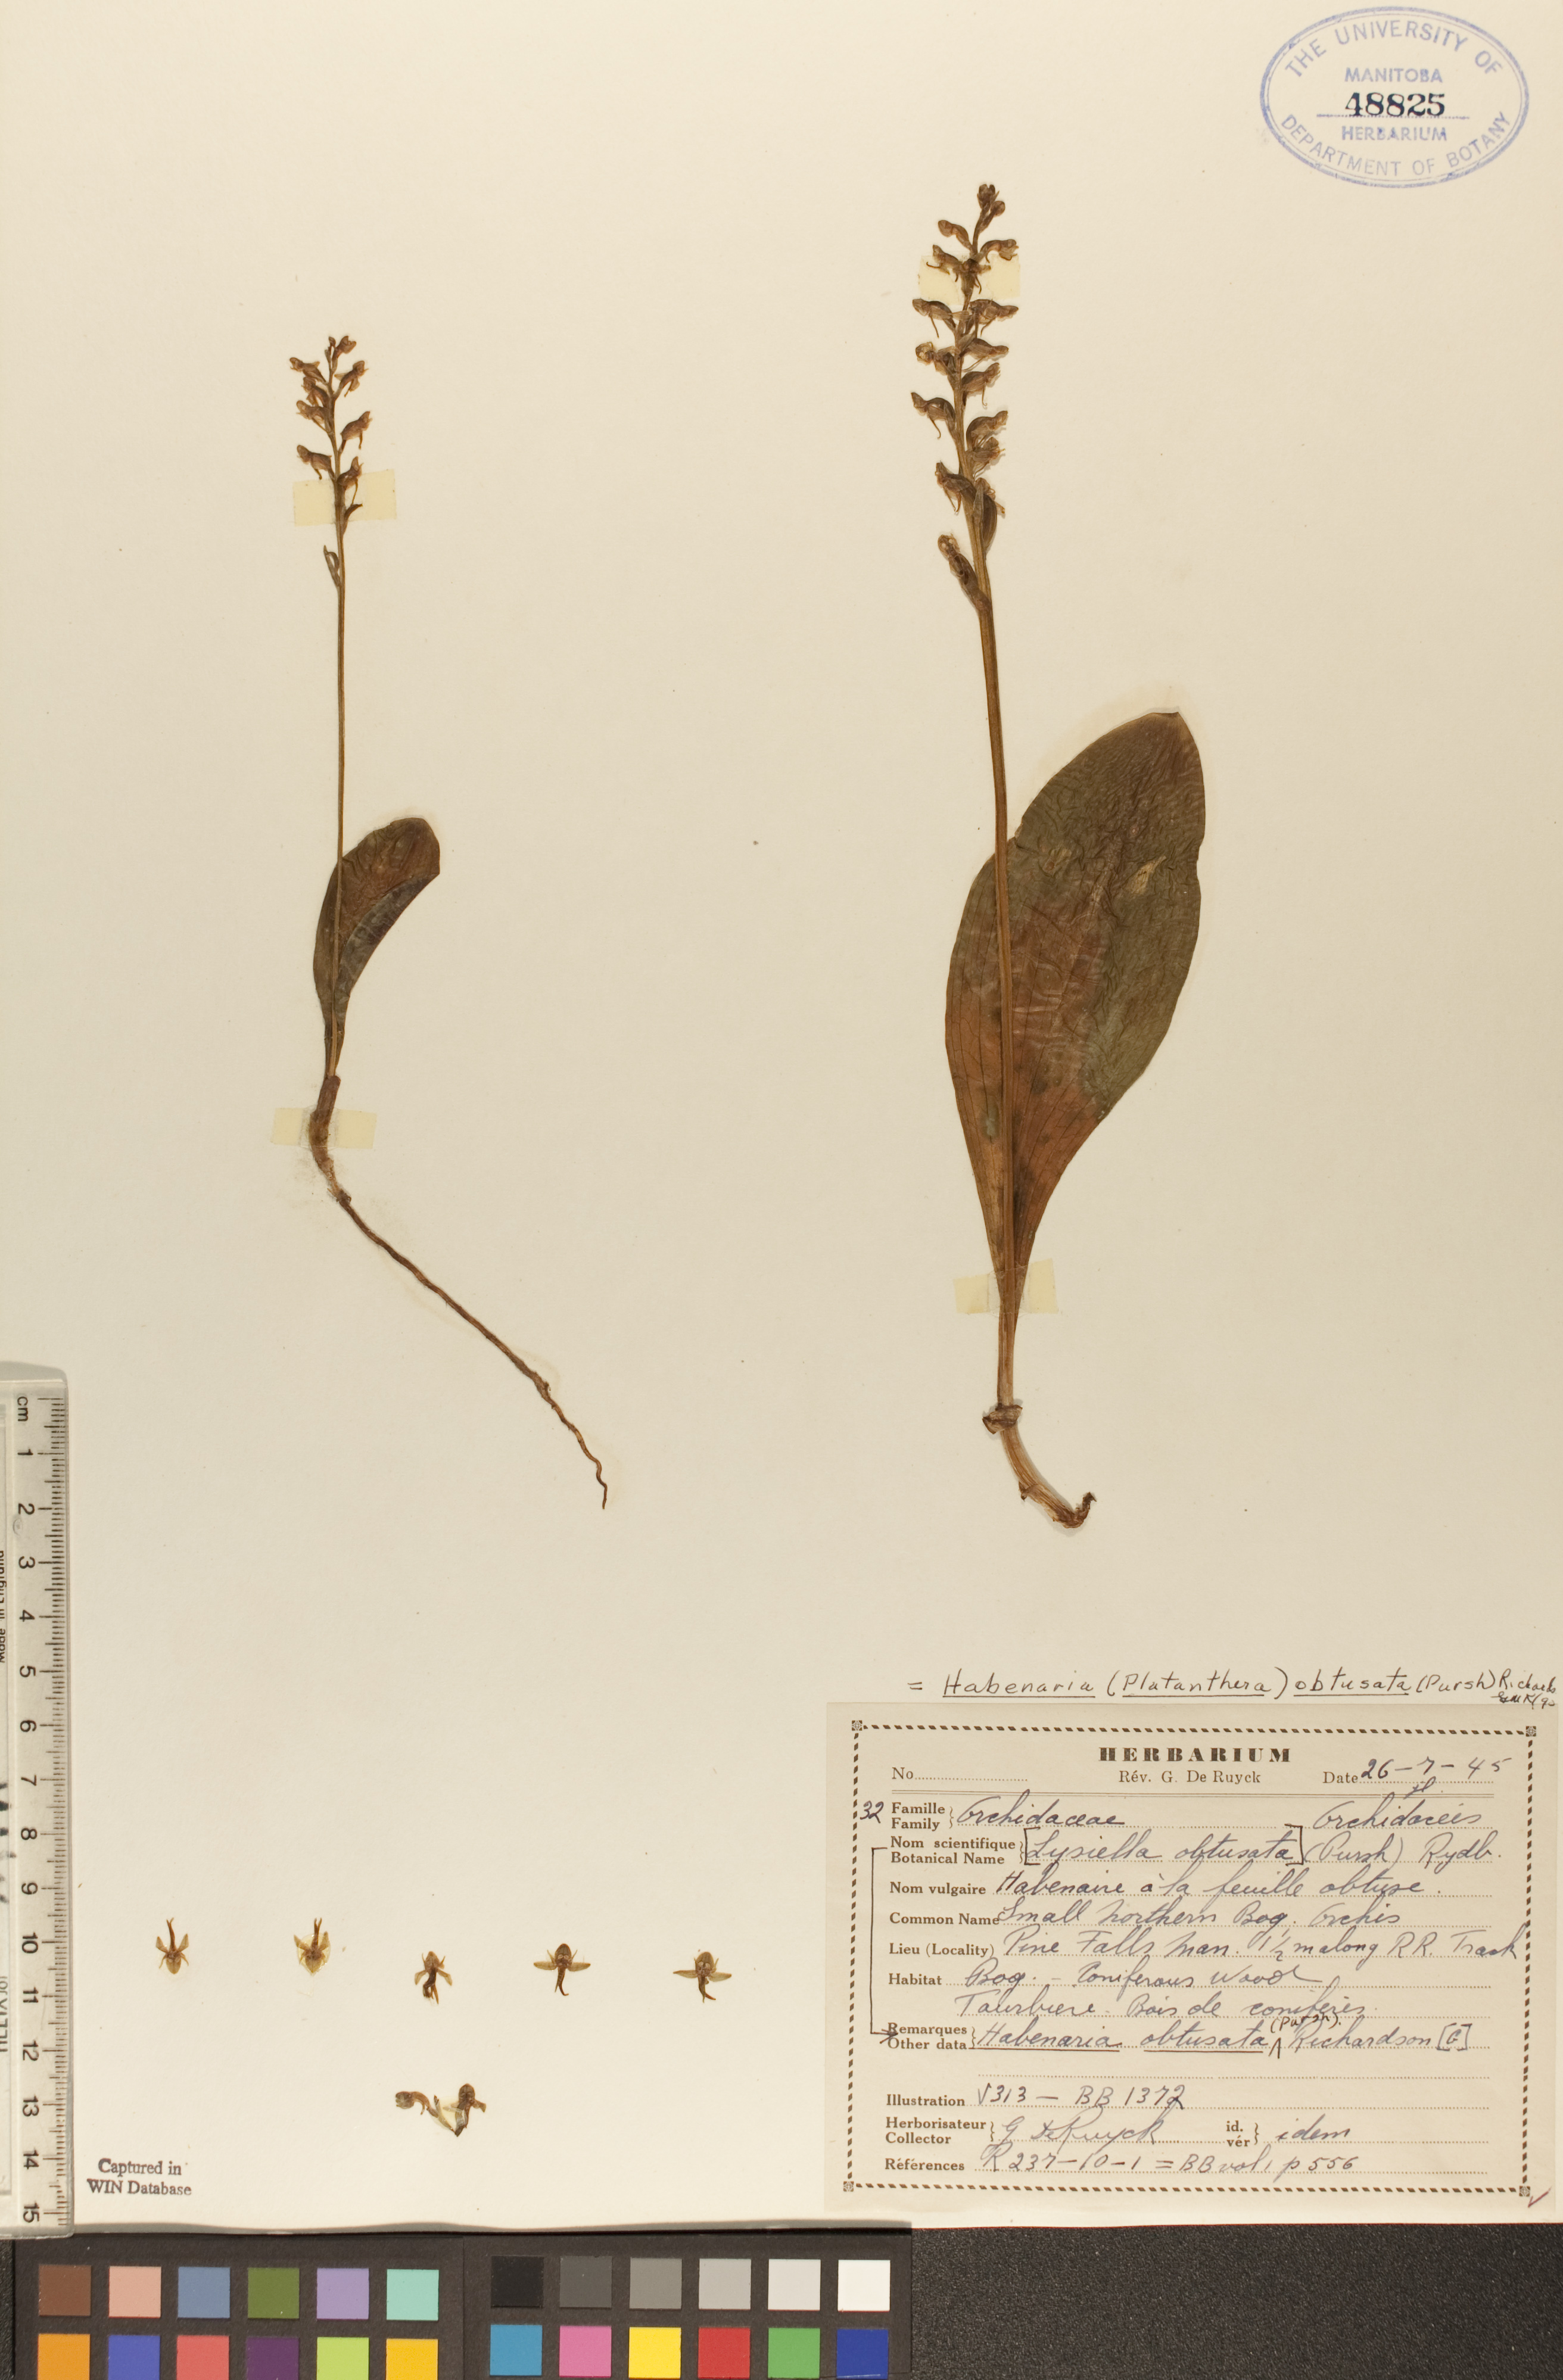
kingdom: Plantae
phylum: Tracheophyta
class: Liliopsida
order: Asparagales
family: Orchidaceae
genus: Platanthera
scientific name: Platanthera obtusata
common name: Blunt bog orchid
